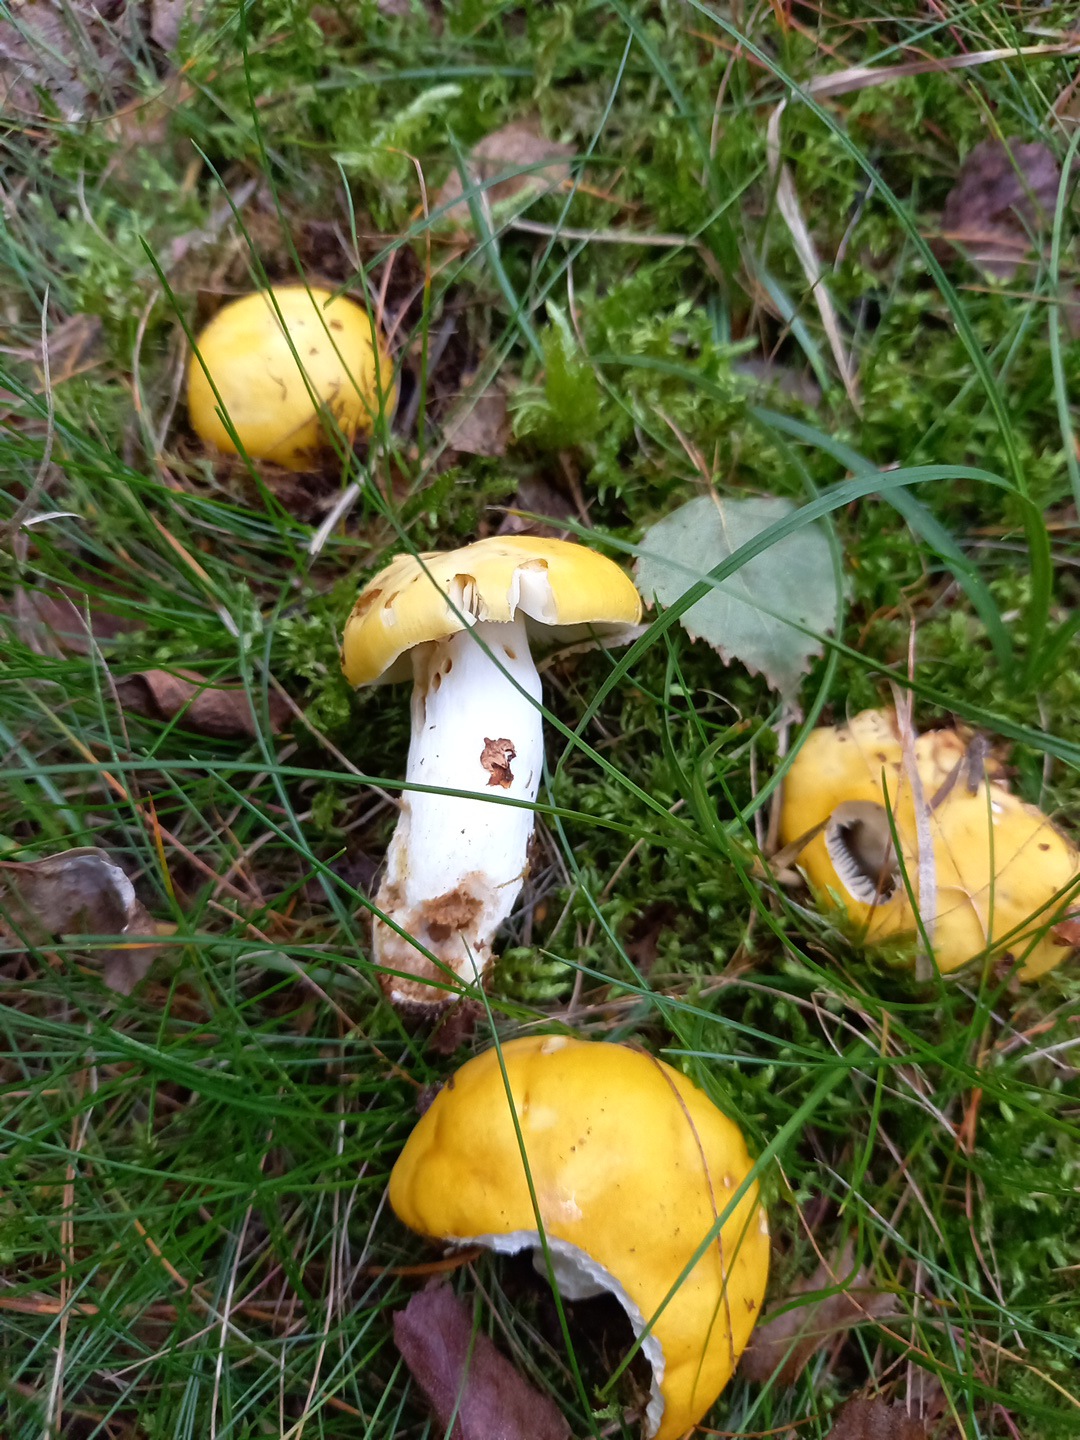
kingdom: Fungi
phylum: Basidiomycota
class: Agaricomycetes
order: Russulales
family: Russulaceae
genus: Russula
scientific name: Russula claroflava
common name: birke-skørhat
